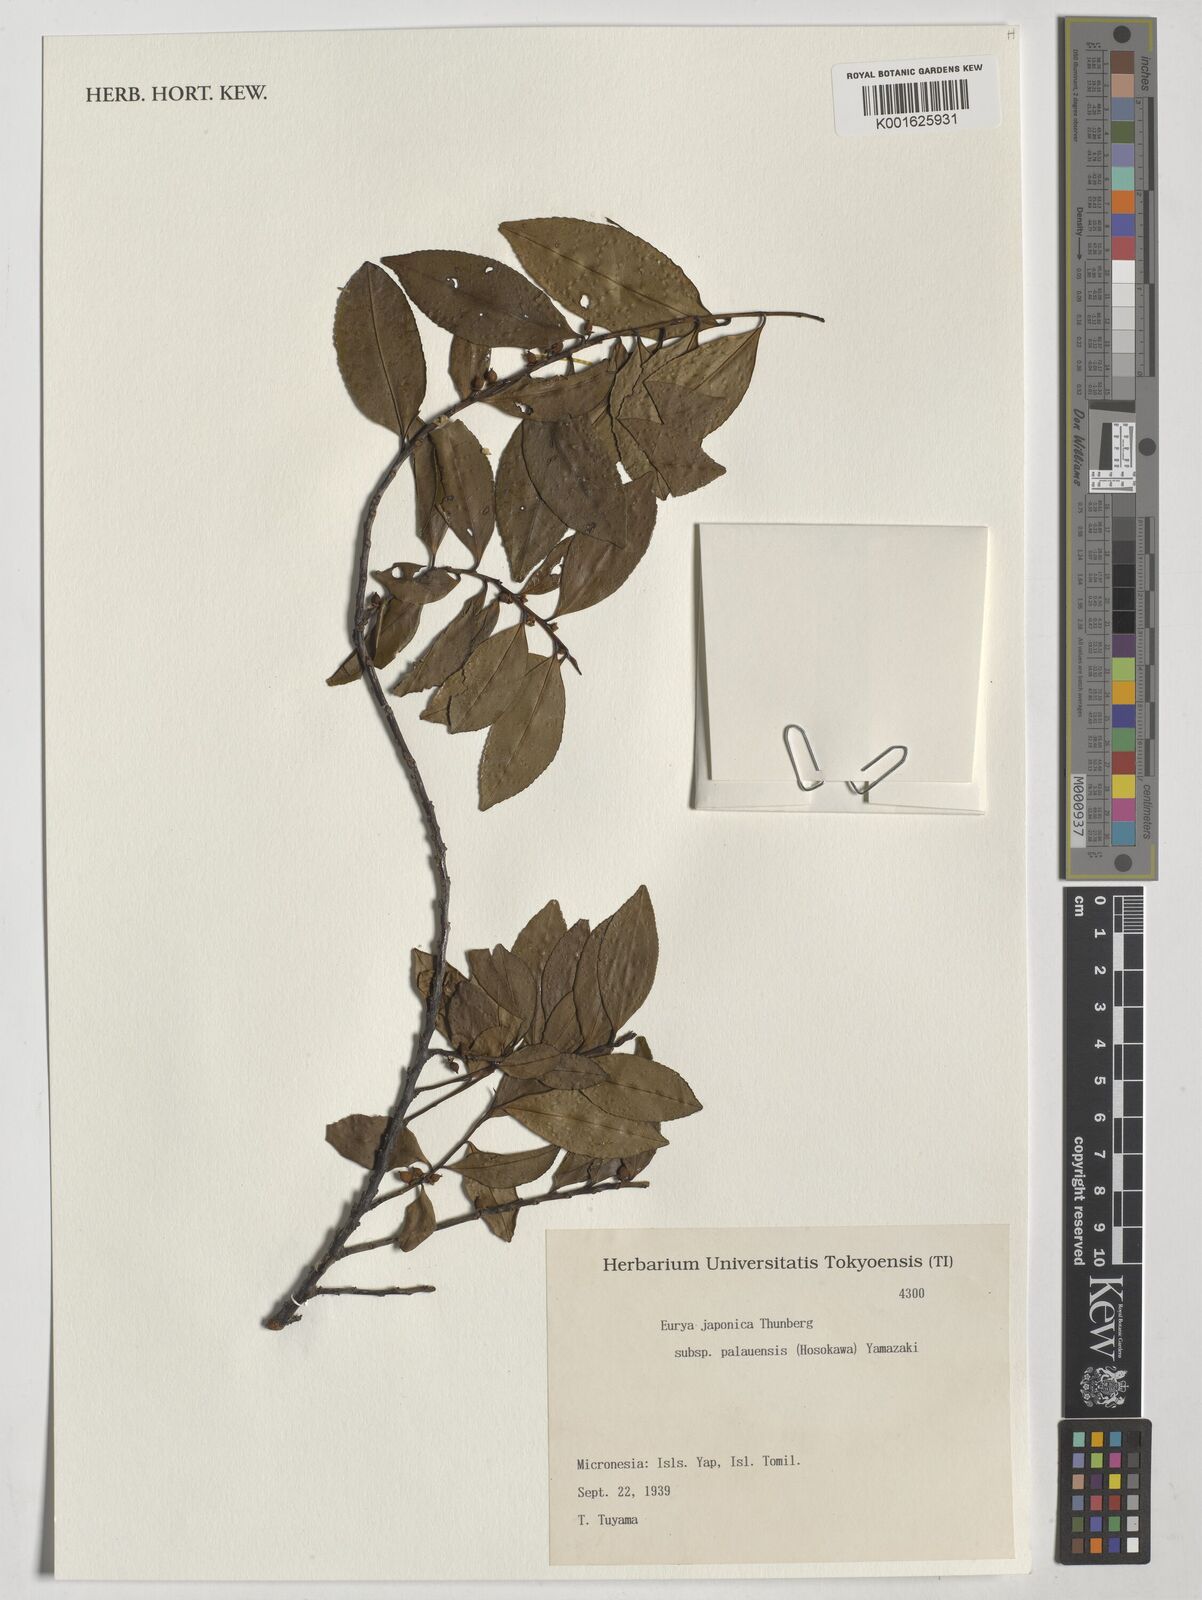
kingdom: Plantae
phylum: Tracheophyta
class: Magnoliopsida
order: Ericales
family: Pentaphylacaceae
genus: Eurya
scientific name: Eurya japonica
